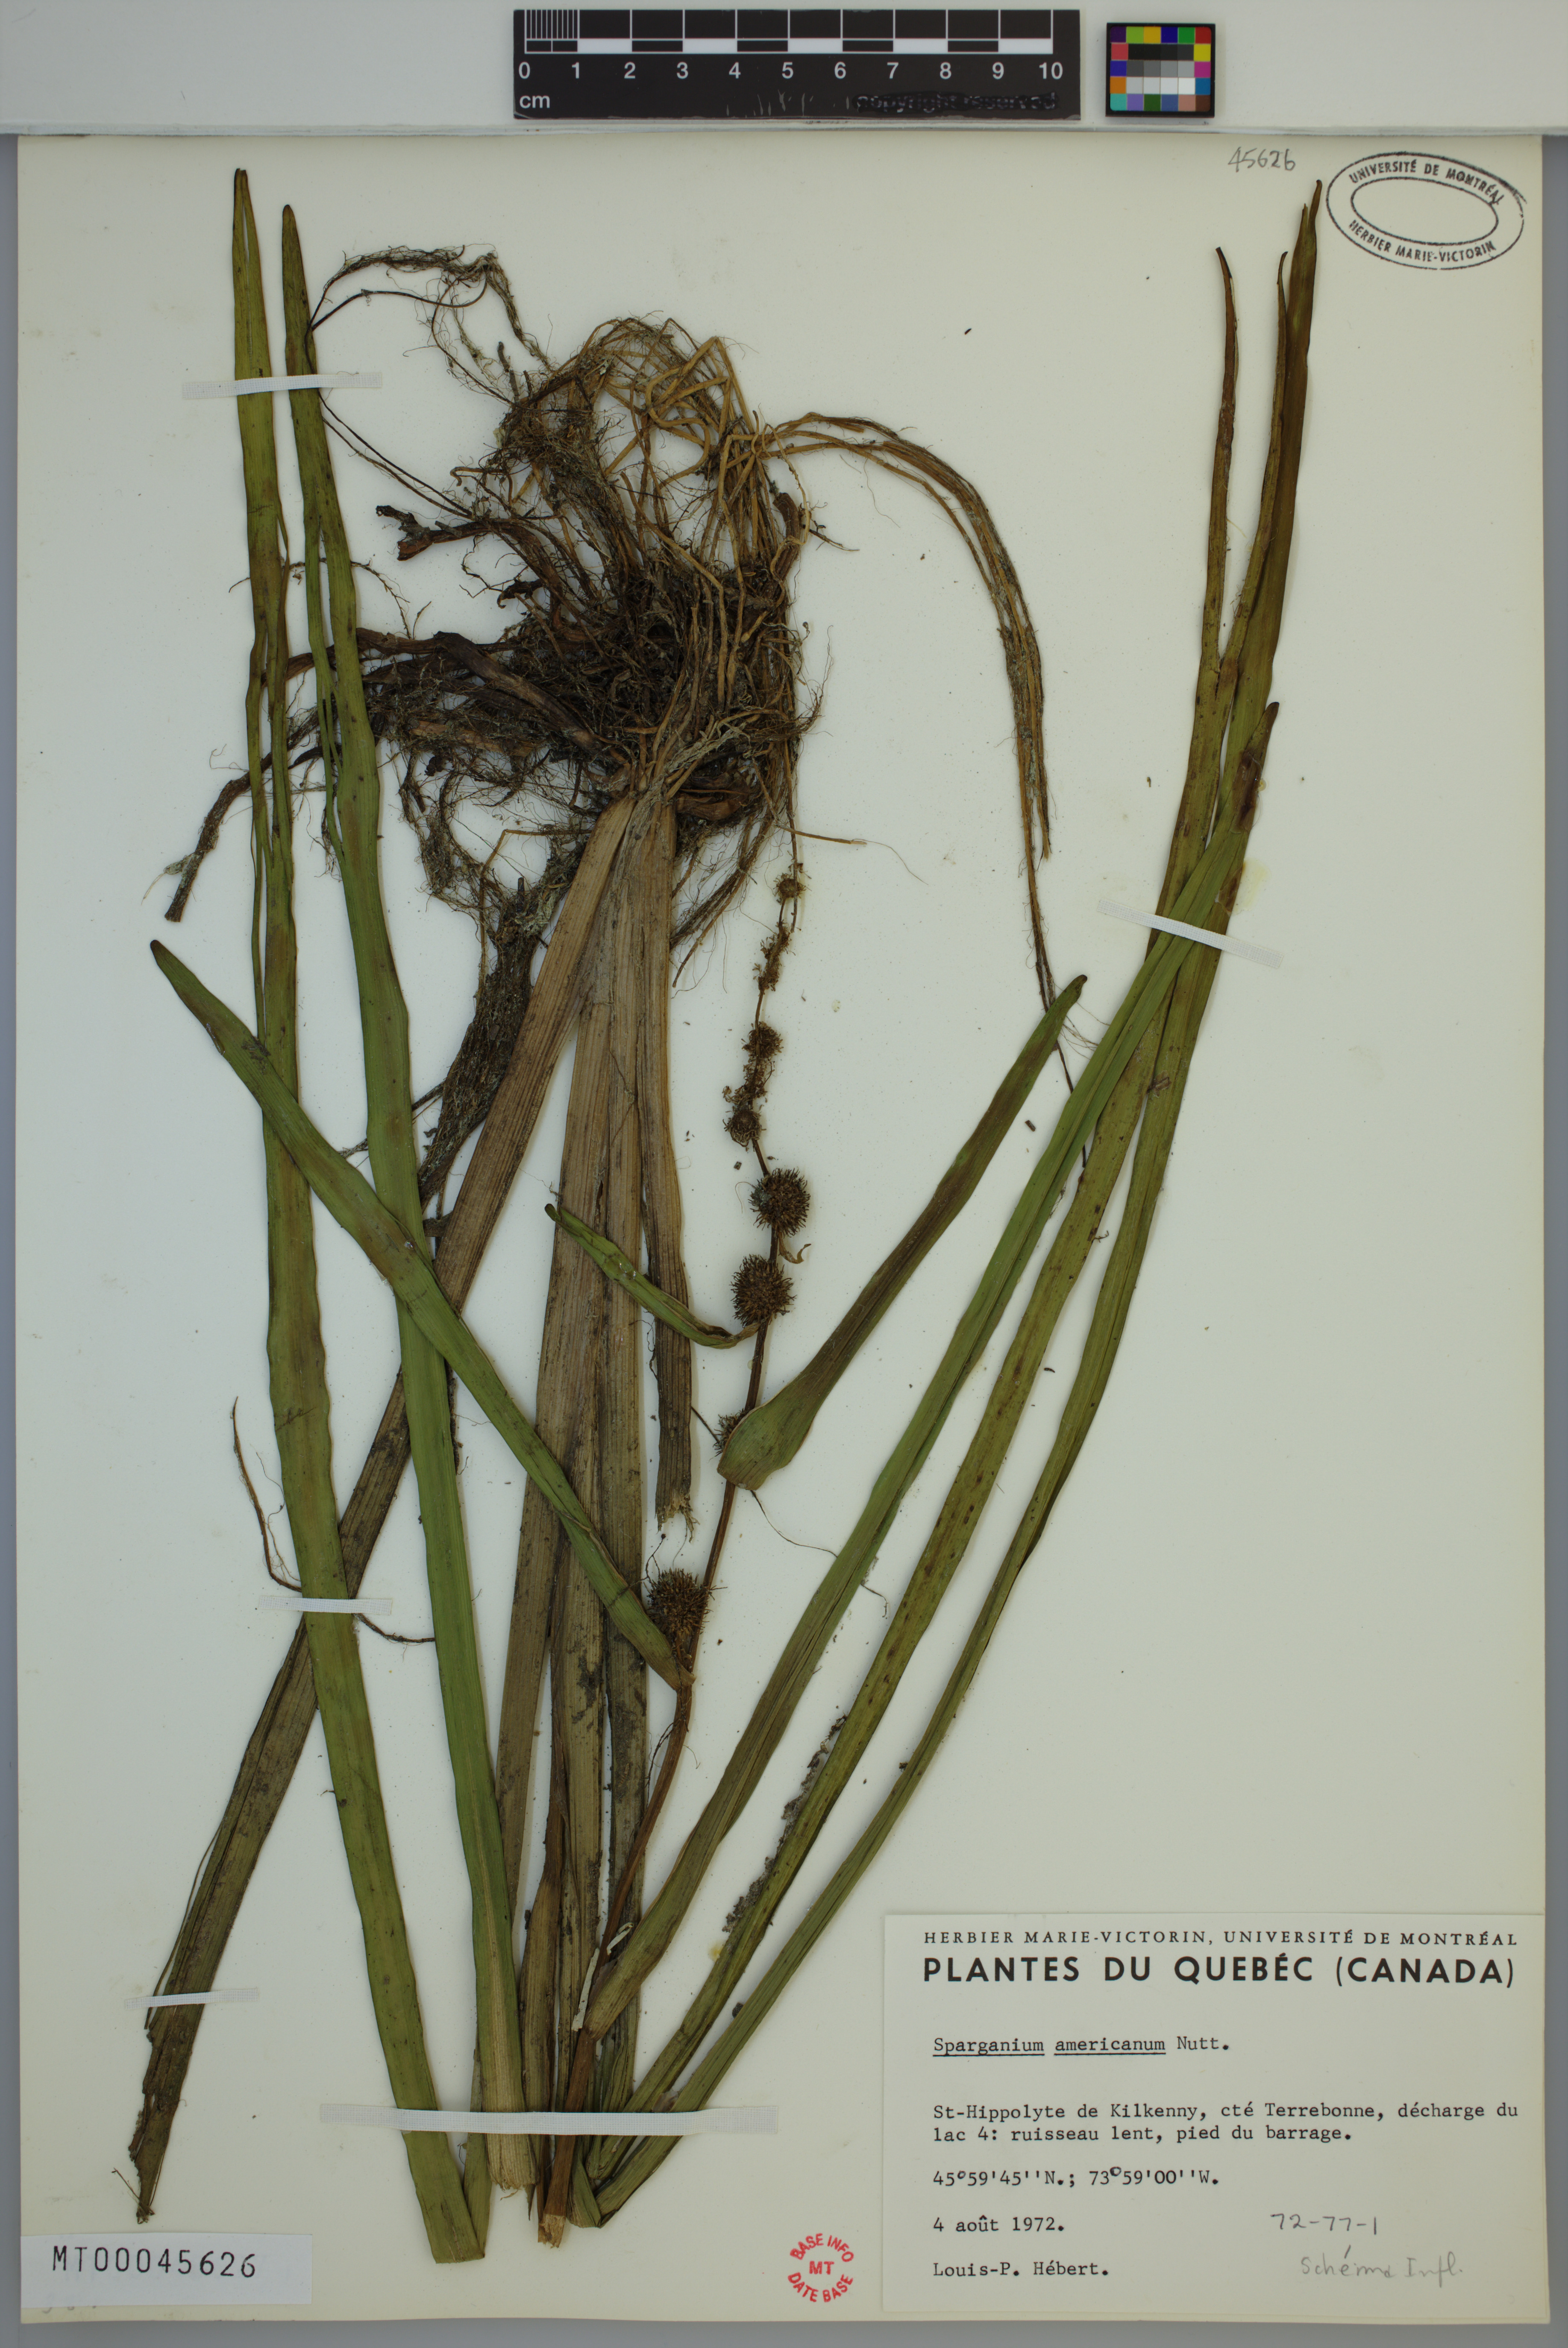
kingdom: Plantae
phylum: Tracheophyta
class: Liliopsida
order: Poales
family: Typhaceae
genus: Sparganium
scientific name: Sparganium americanum
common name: American burreed
